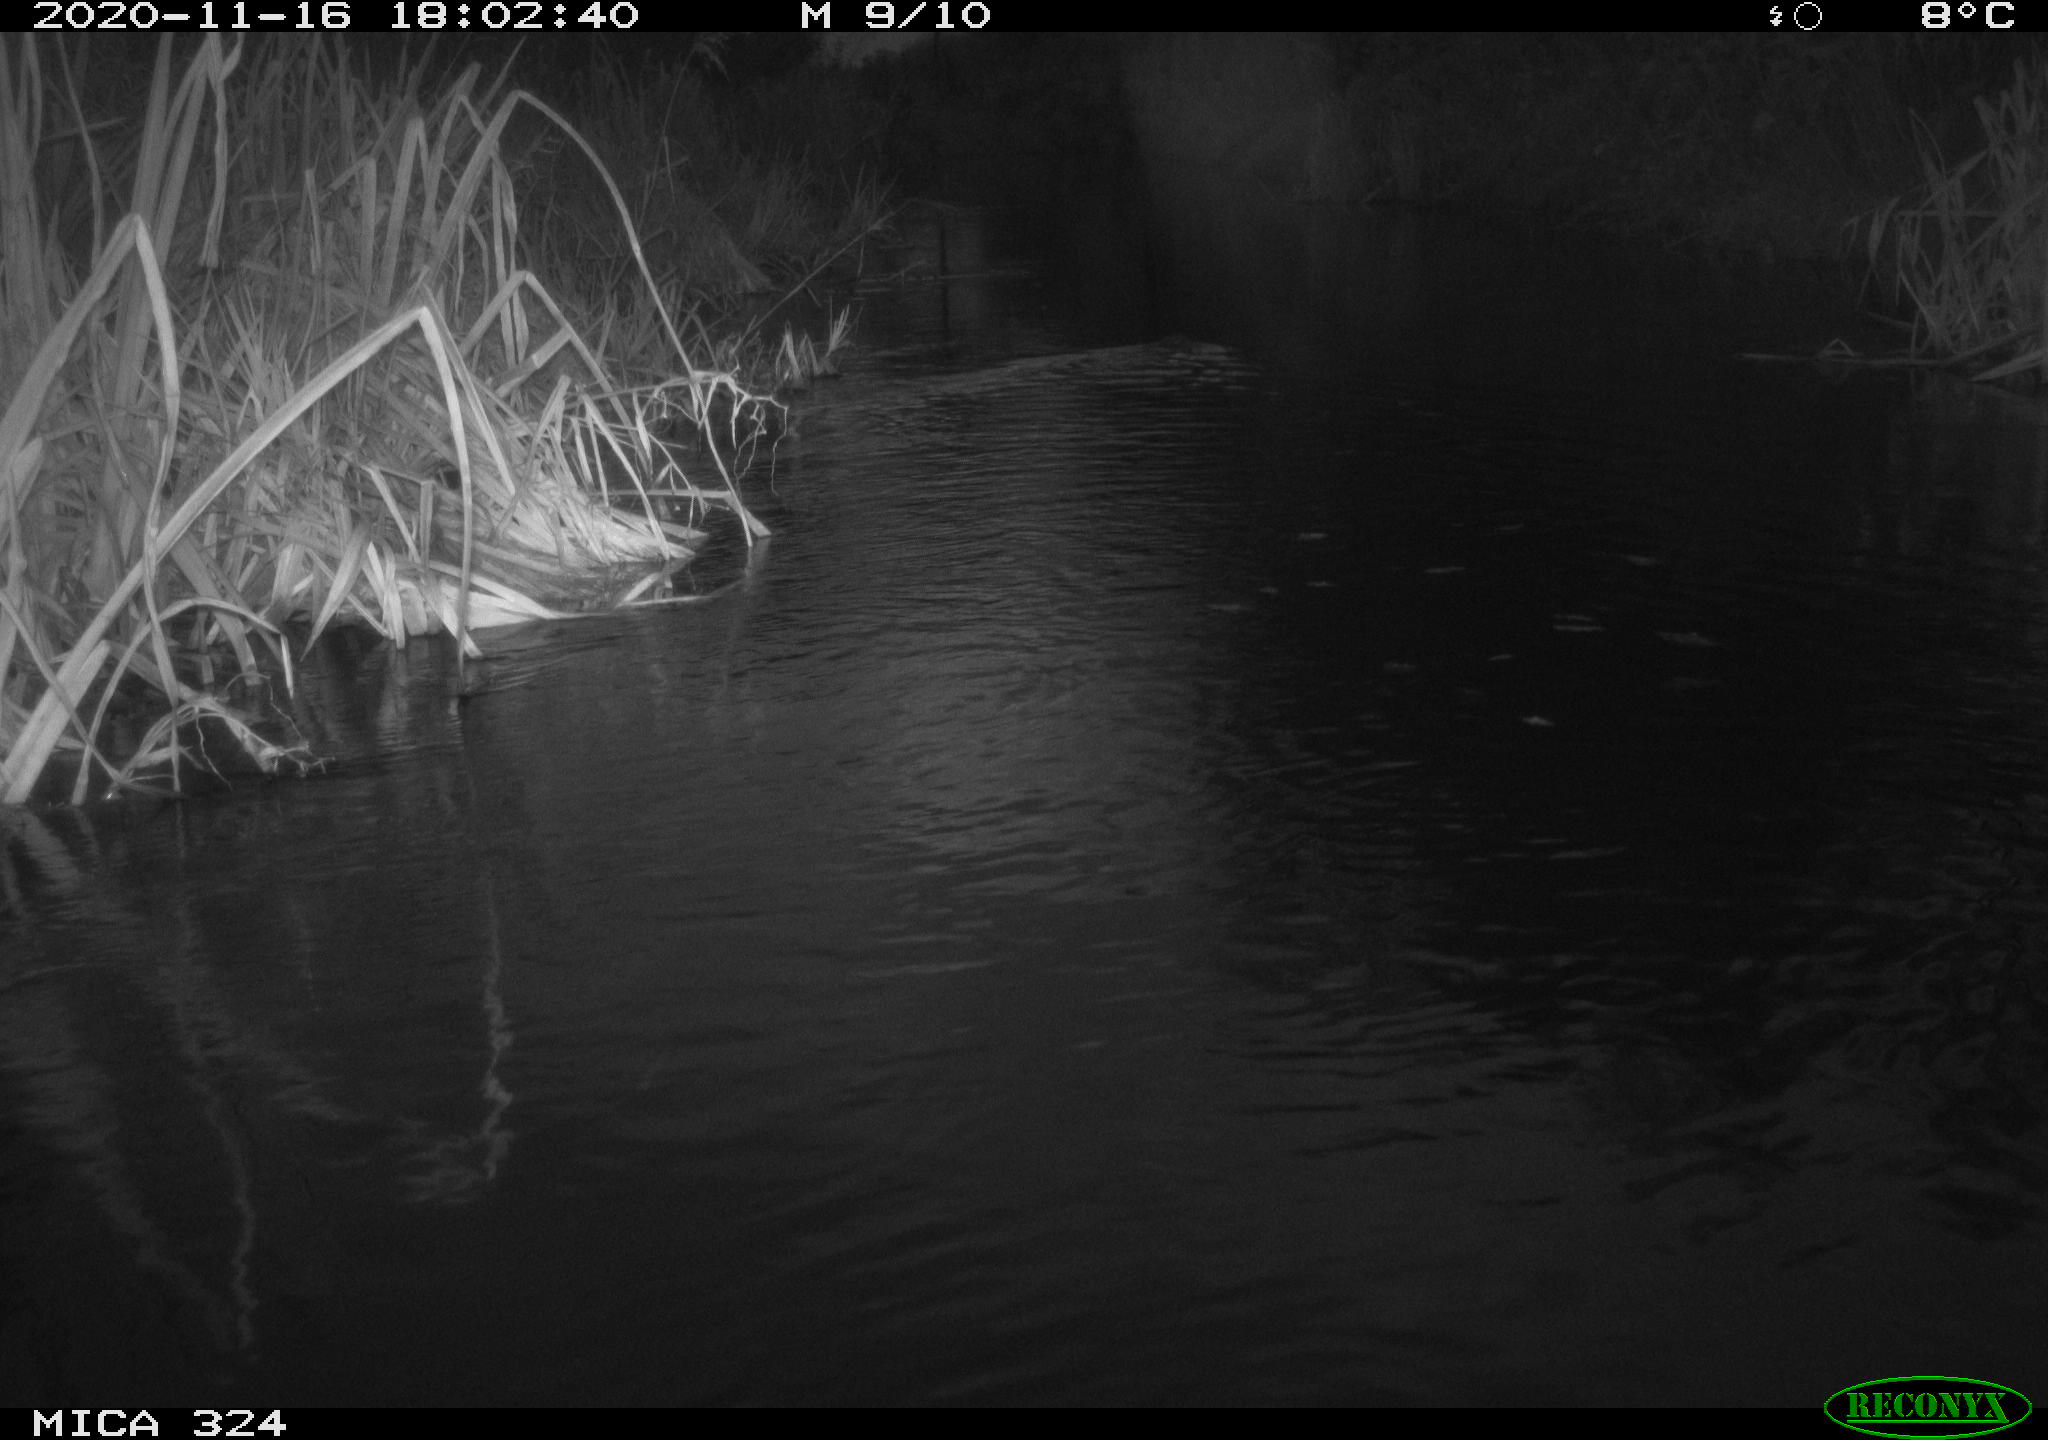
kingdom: Animalia
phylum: Chordata
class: Mammalia
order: Rodentia
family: Cricetidae
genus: Ondatra
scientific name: Ondatra zibethicus
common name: Muskrat
